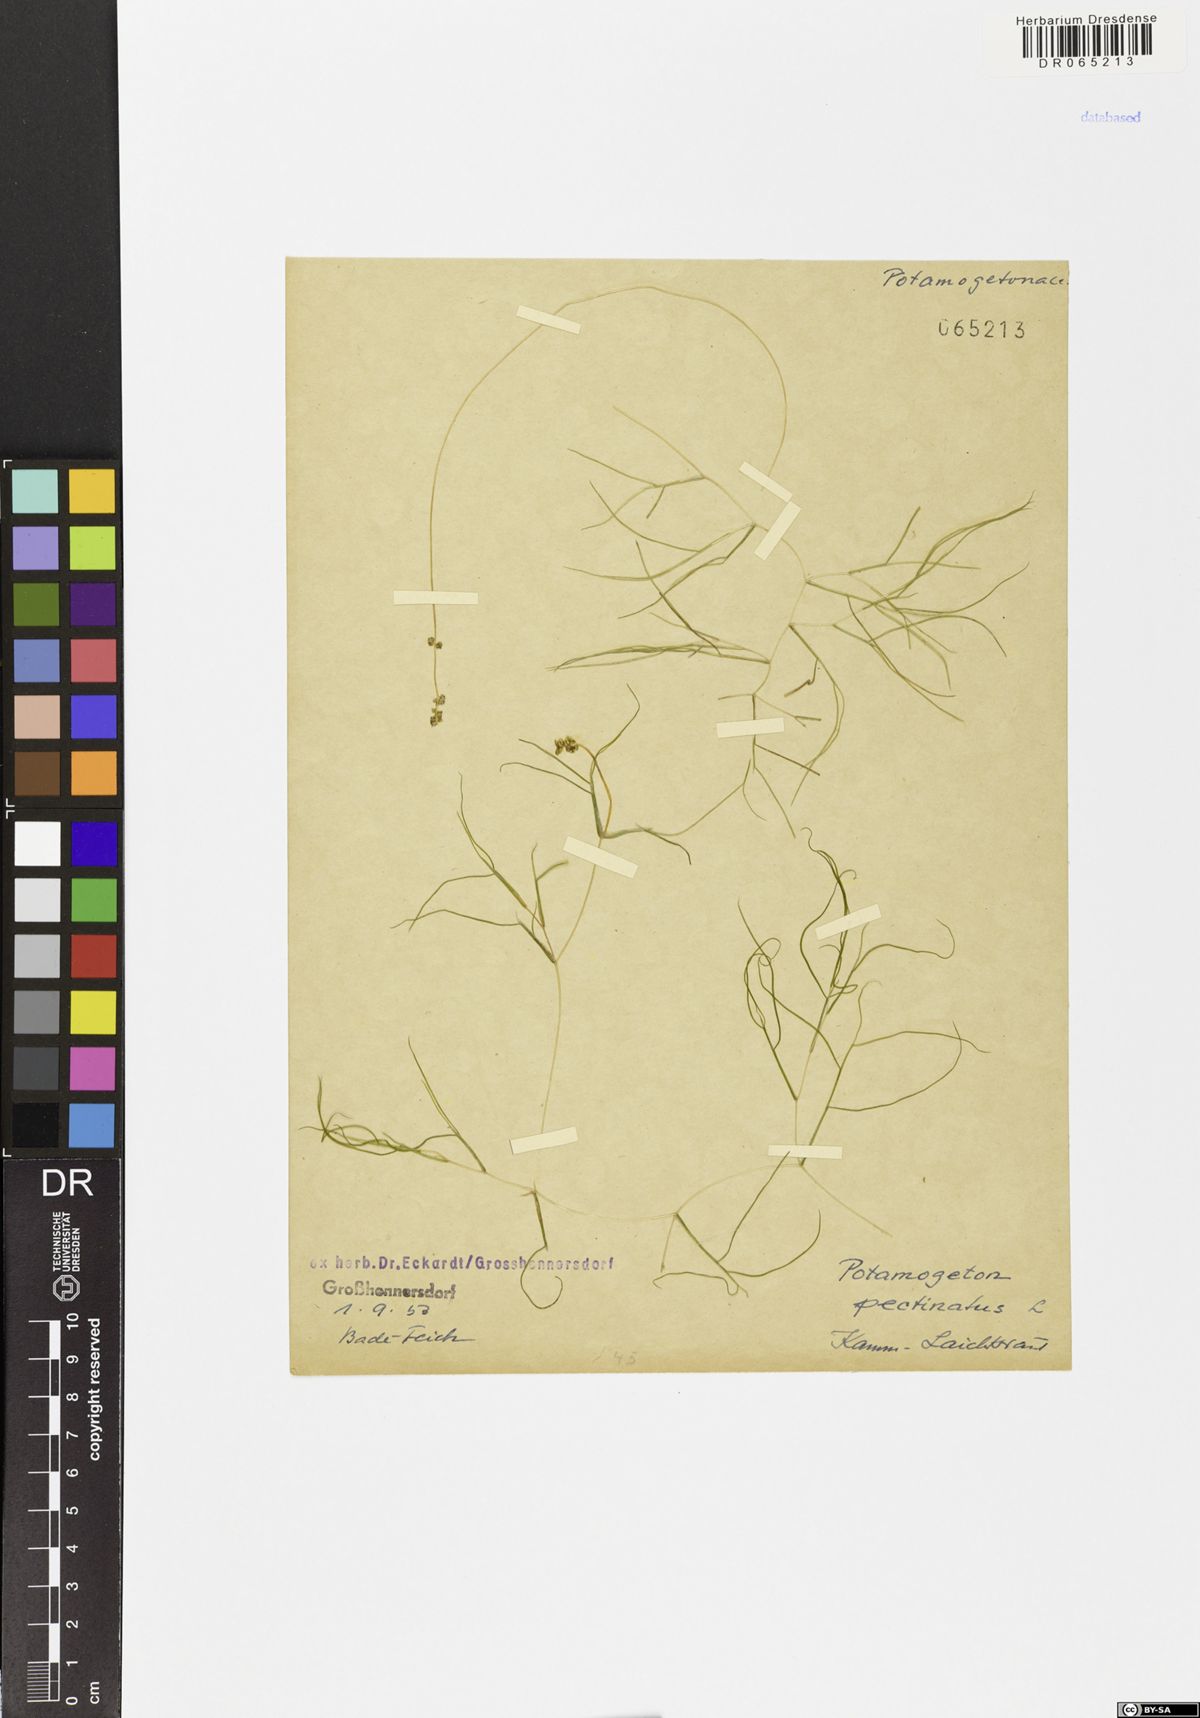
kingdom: Plantae
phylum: Tracheophyta
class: Liliopsida
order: Alismatales
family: Potamogetonaceae
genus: Stuckenia
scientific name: Stuckenia pectinata
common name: Sago pondweed
